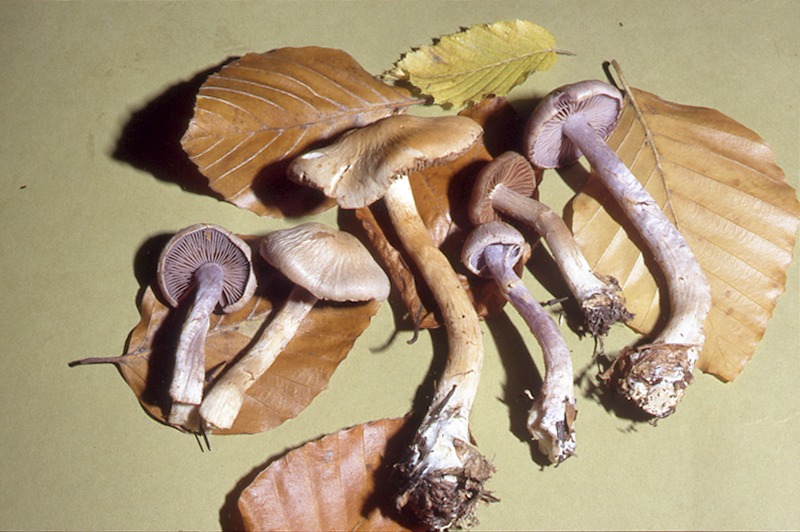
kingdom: Fungi
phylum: Basidiomycota
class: Agaricomycetes
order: Agaricales
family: Cortinariaceae
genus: Cortinarius
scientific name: Cortinarius anomalus
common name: Variable webcap
